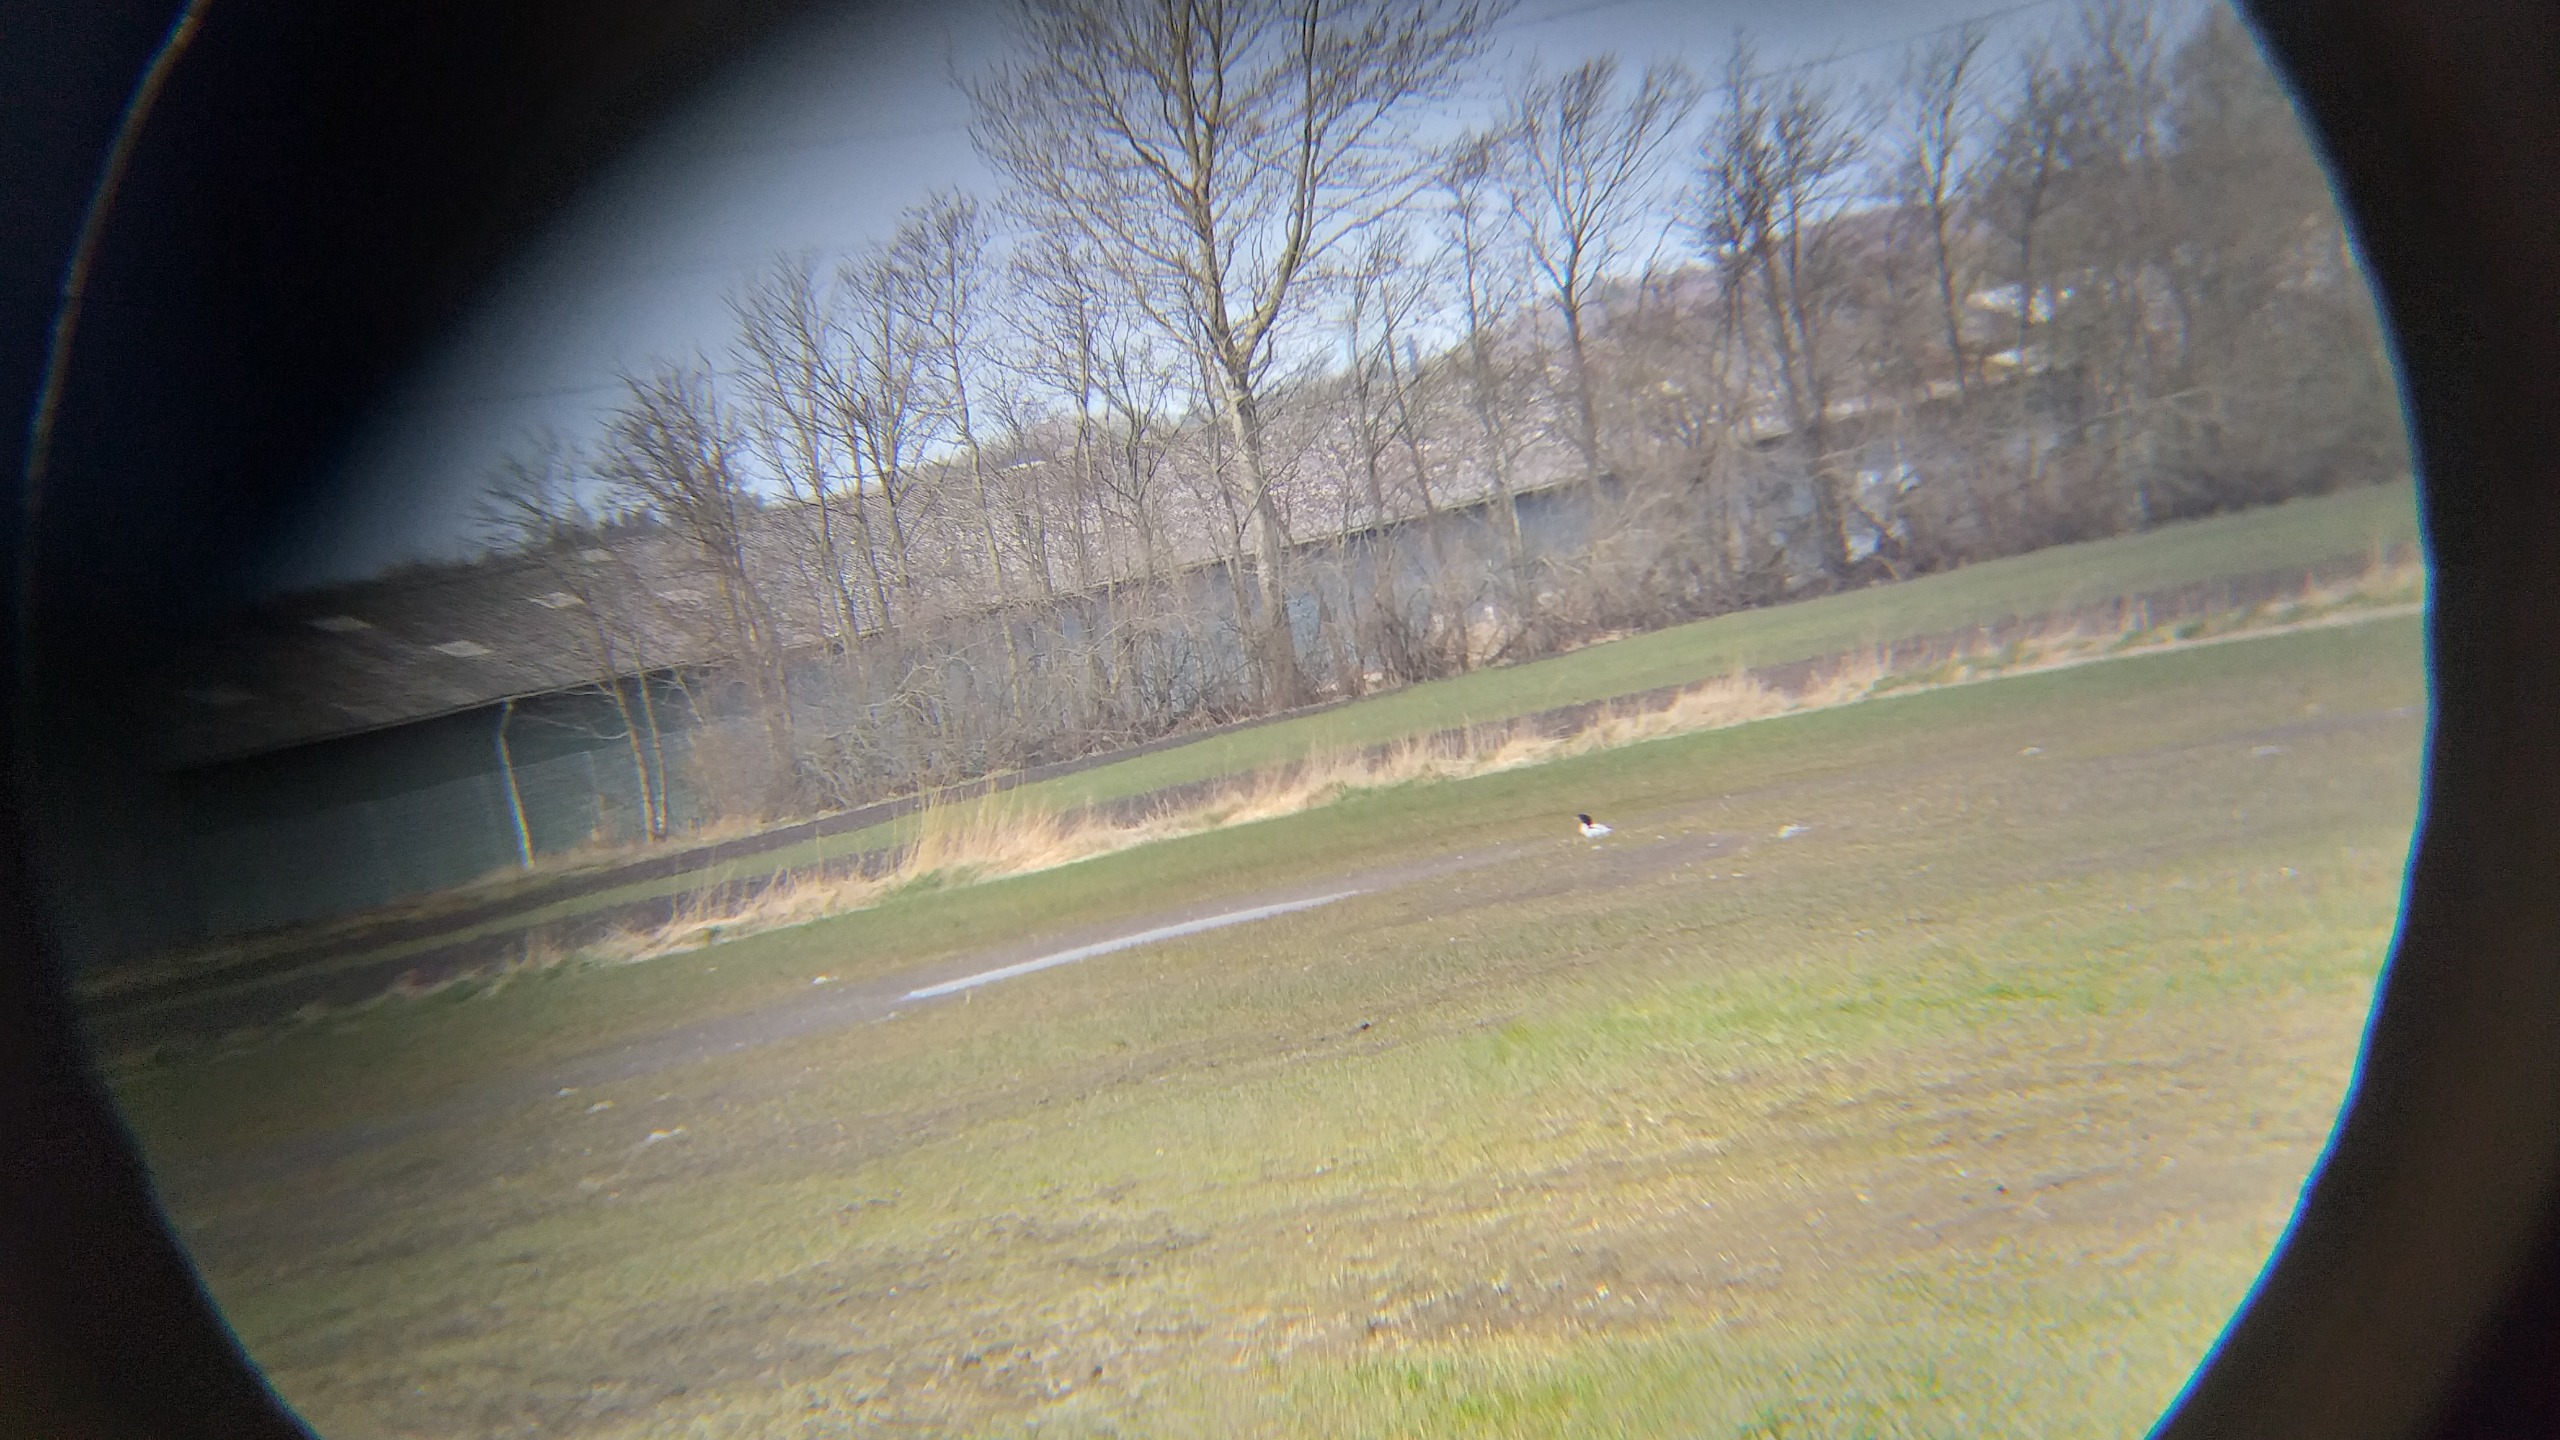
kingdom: Animalia
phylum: Chordata
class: Aves
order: Anseriformes
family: Anatidae
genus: Tadorna
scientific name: Tadorna tadorna
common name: Gravand
